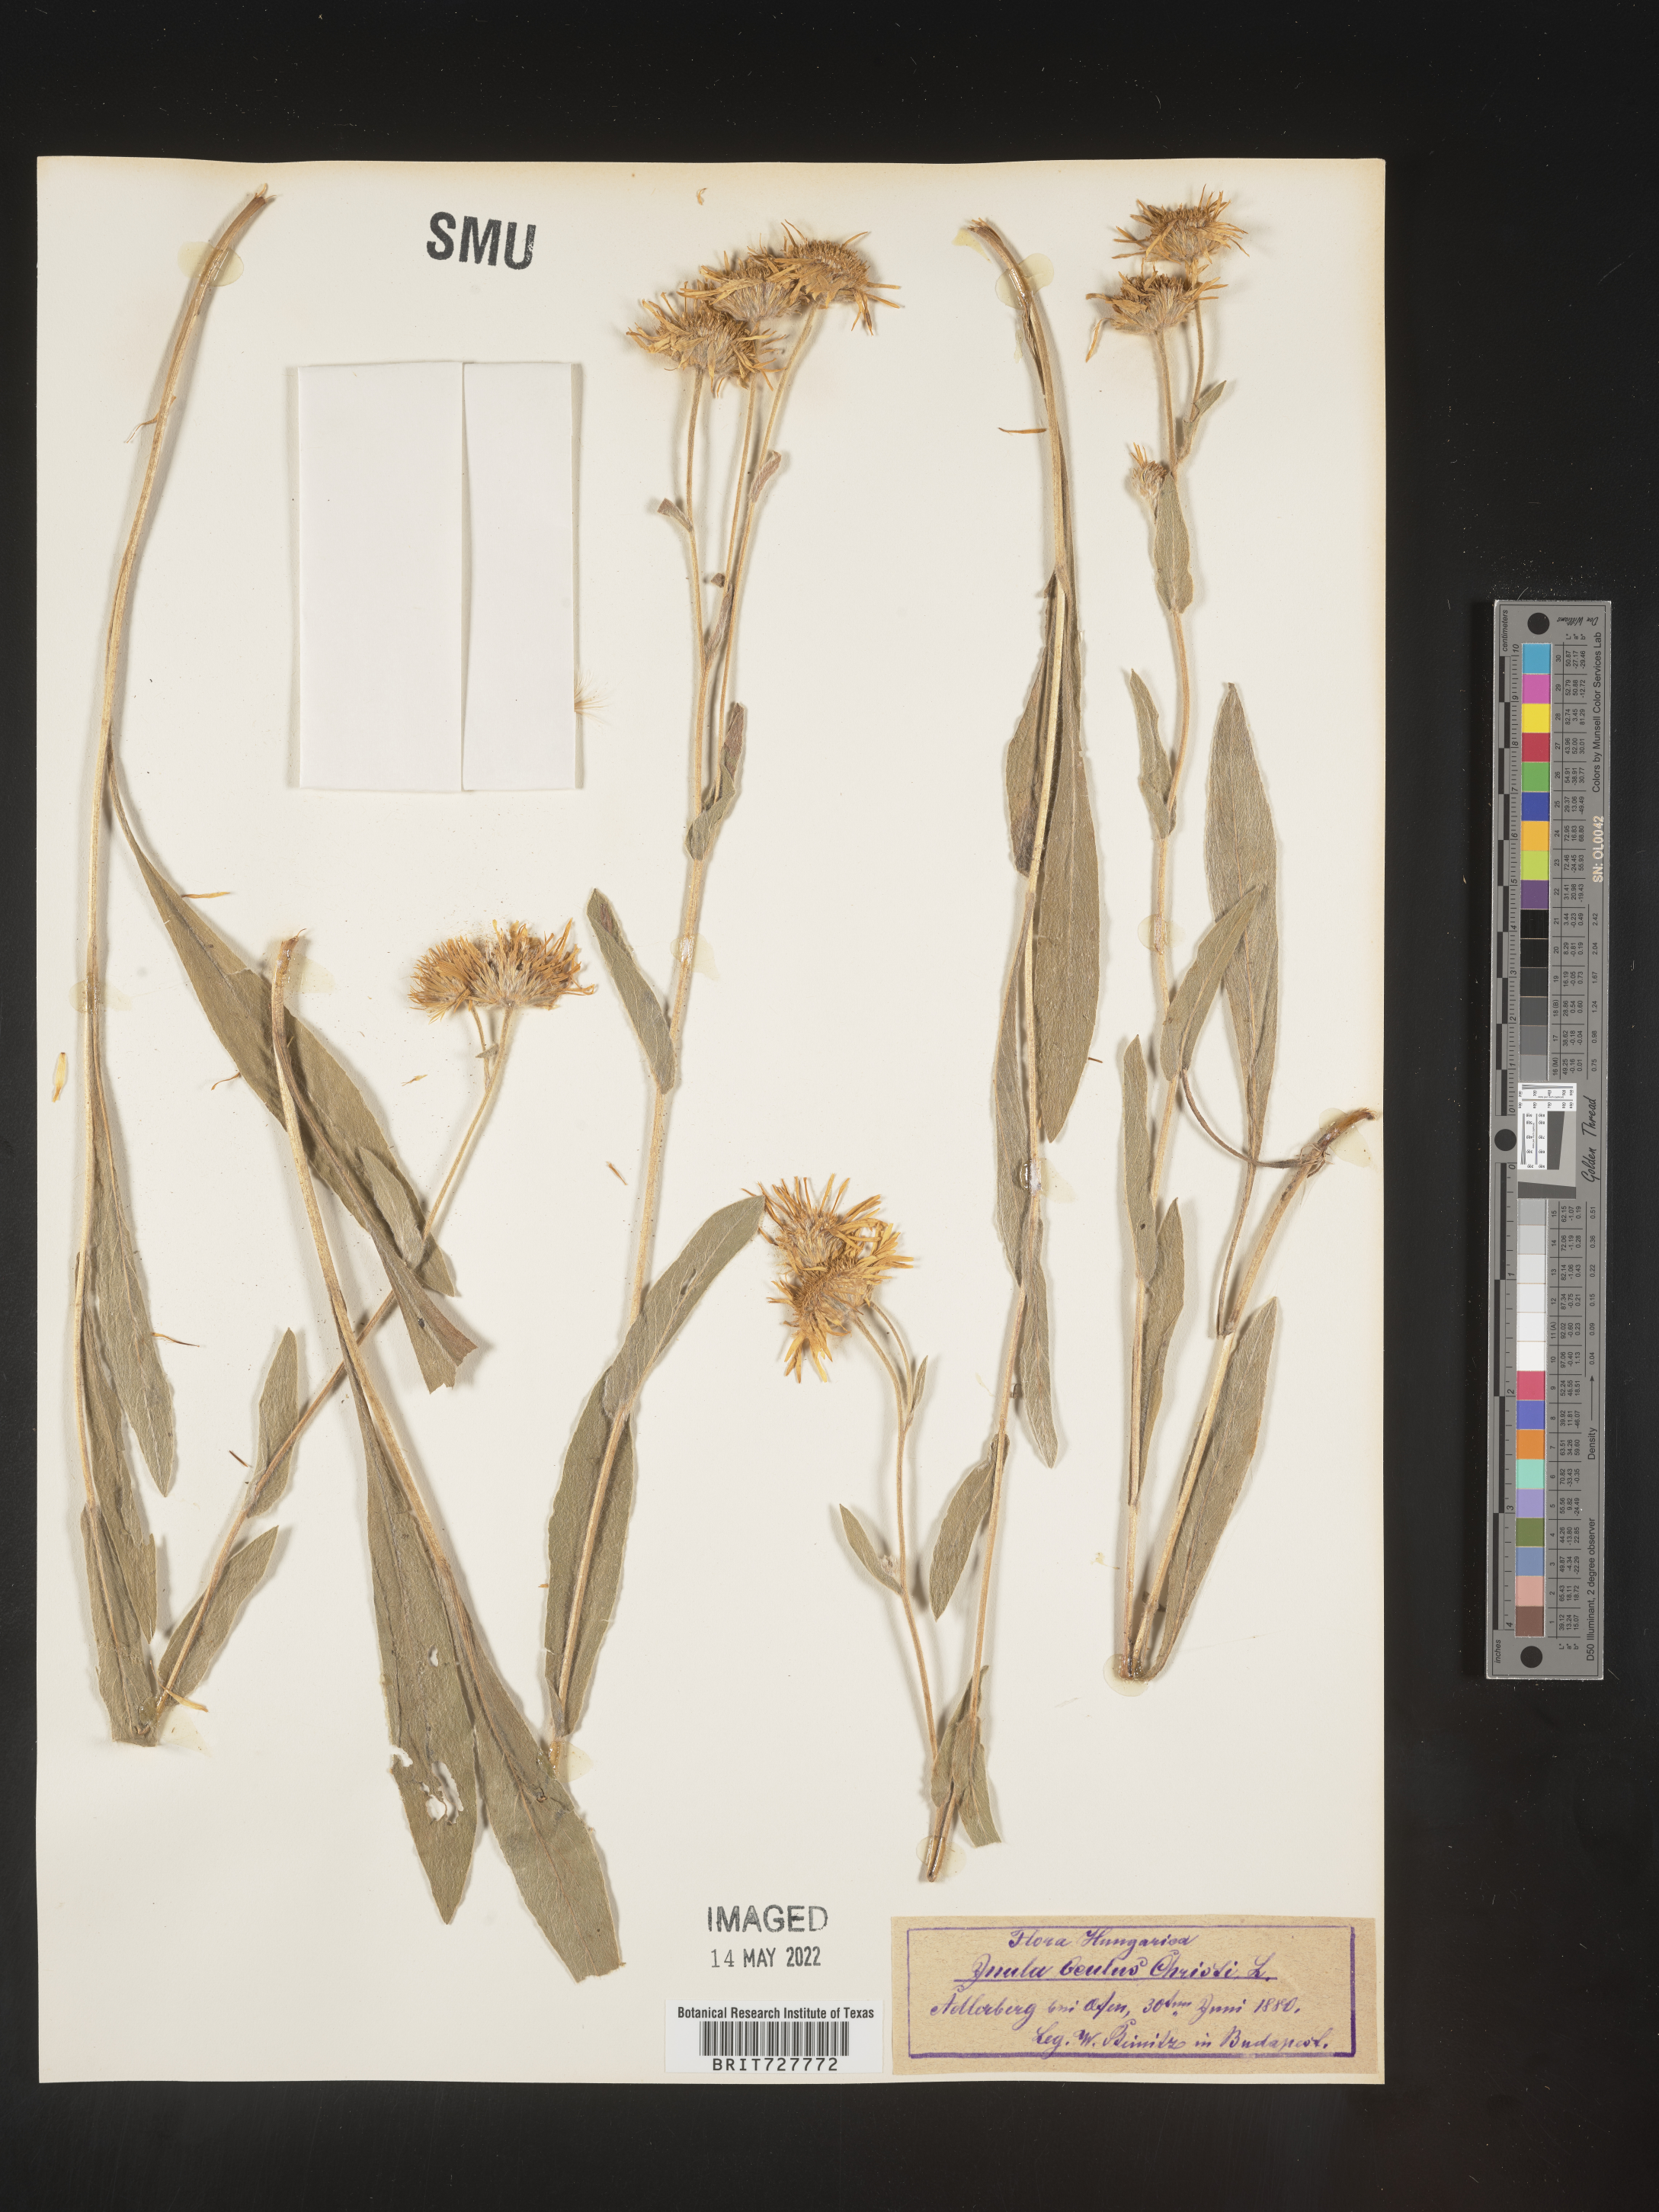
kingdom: Plantae
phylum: Tracheophyta
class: Magnoliopsida
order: Asterales
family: Asteraceae
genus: Inula
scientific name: Inula
